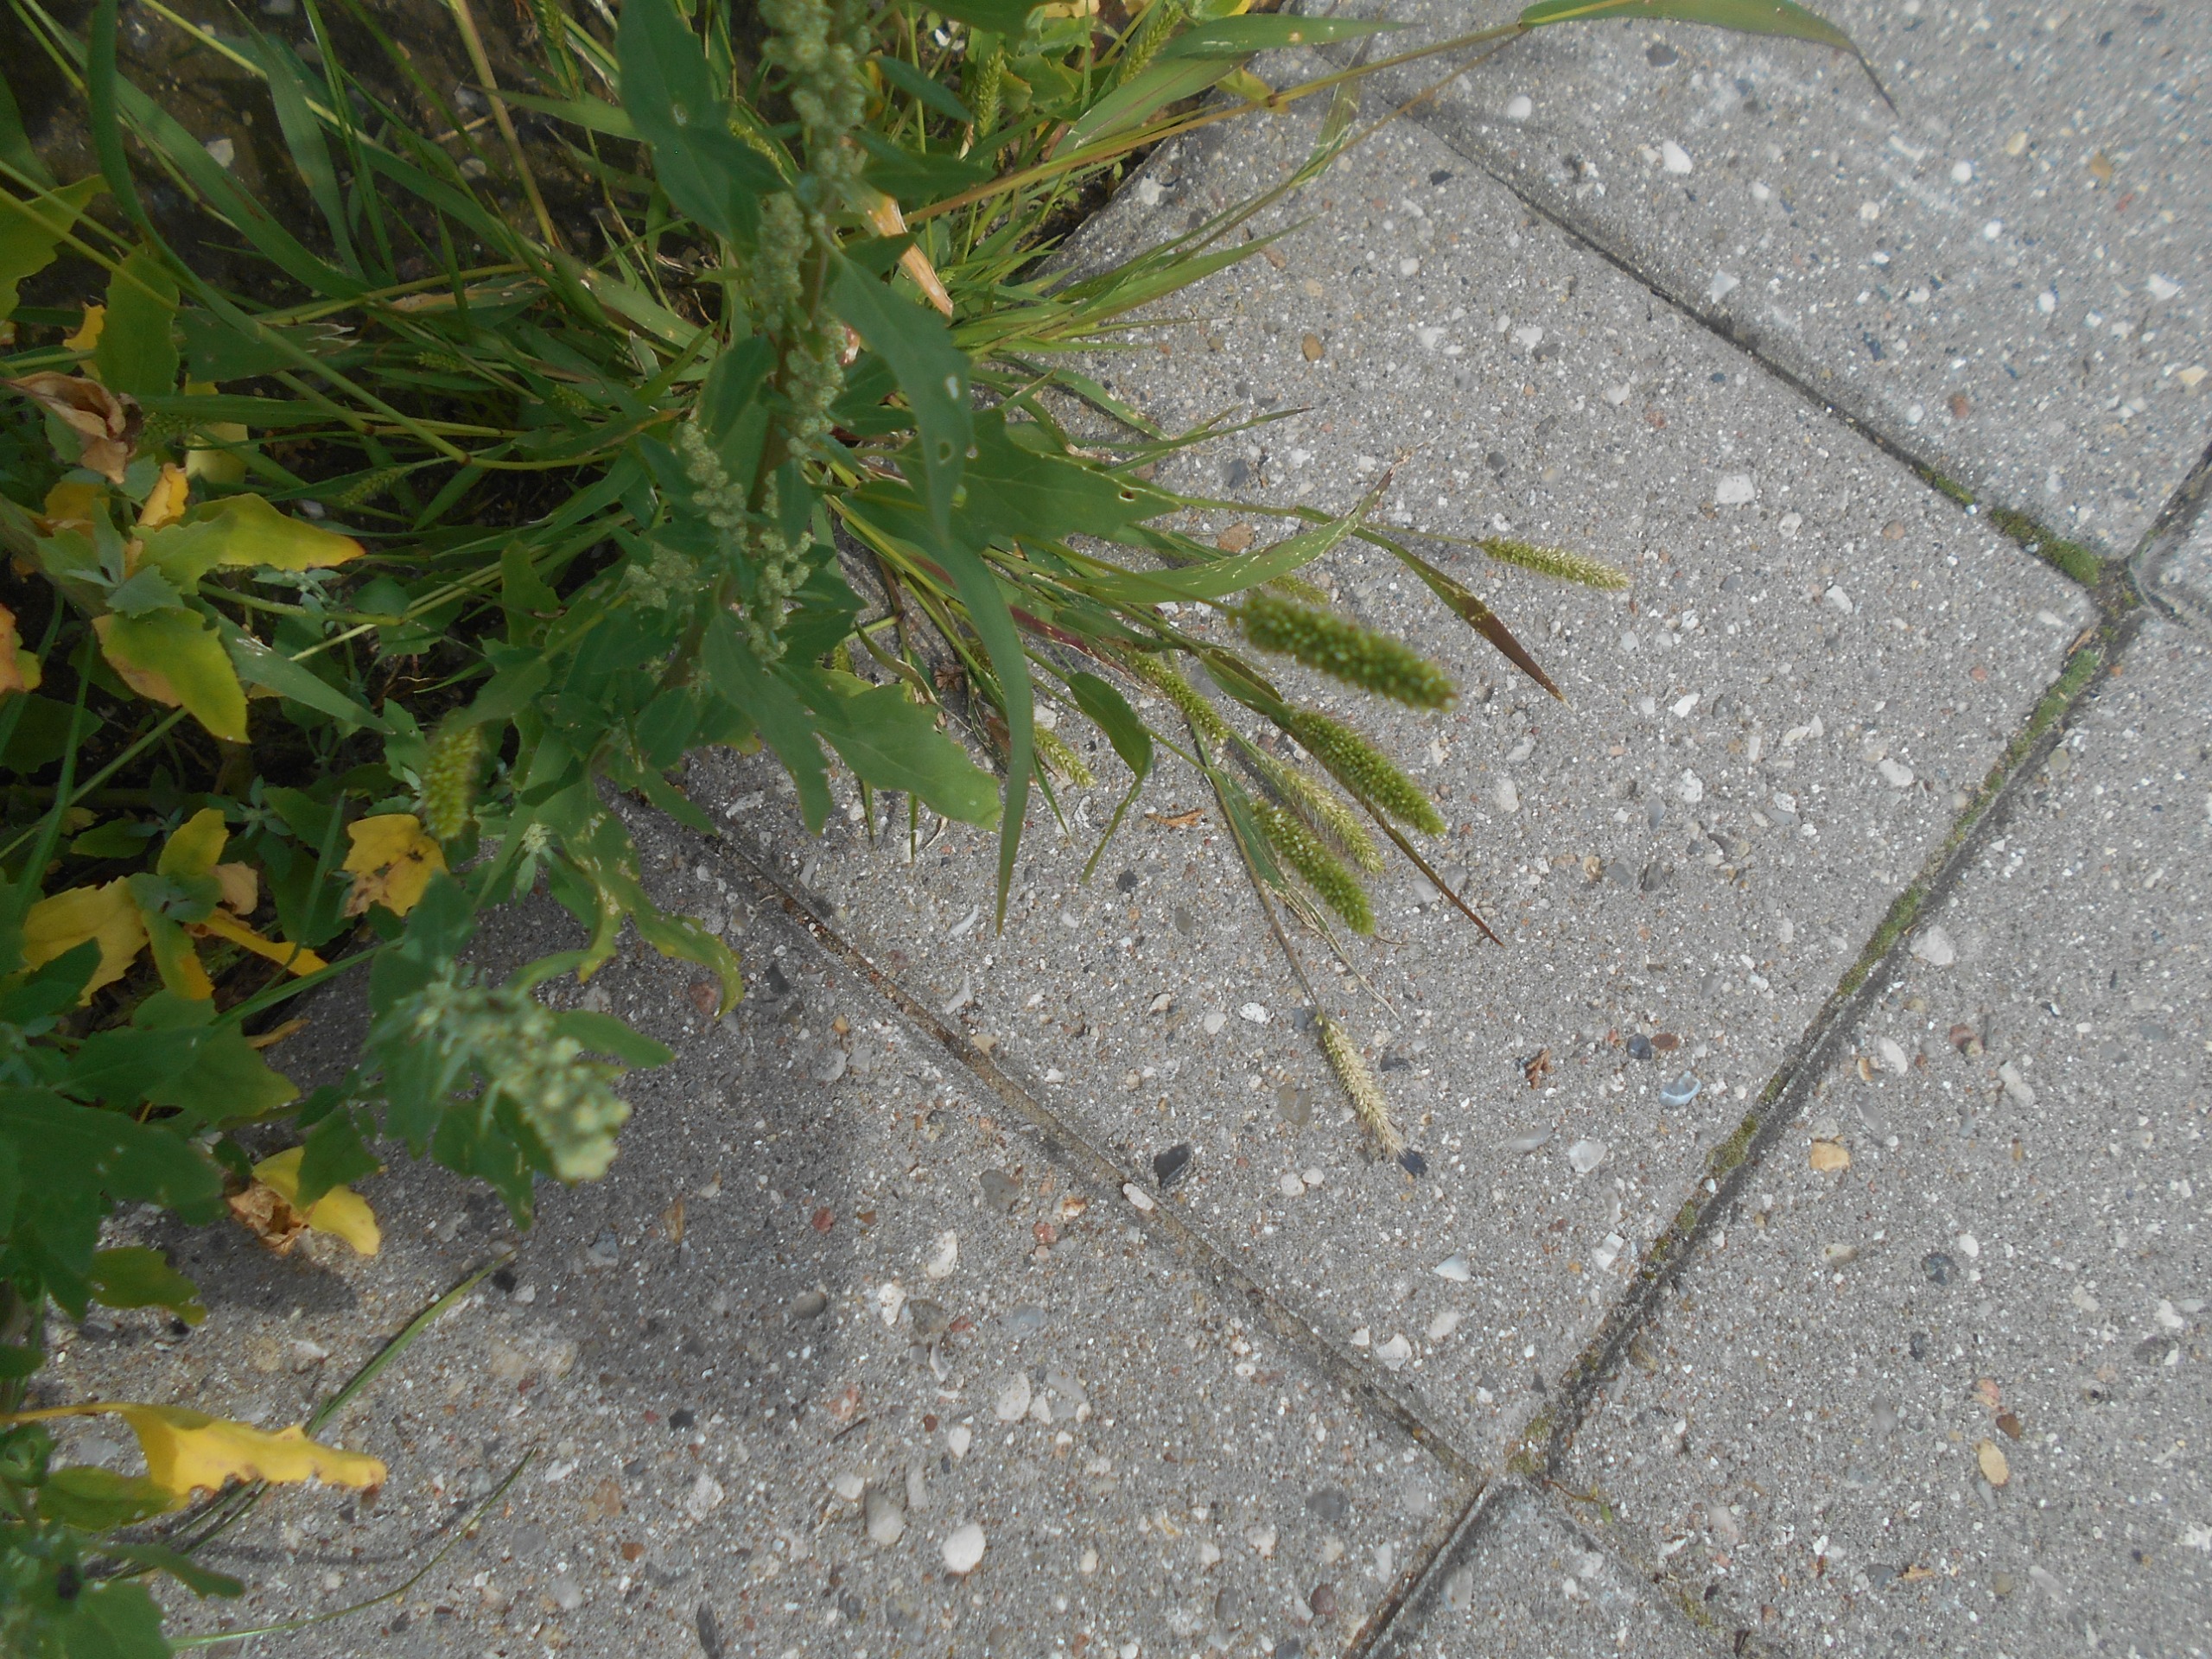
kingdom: Plantae
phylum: Tracheophyta
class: Liliopsida
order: Poales
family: Poaceae
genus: Setaria
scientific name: Setaria viridis
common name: Grøn skærmaks
